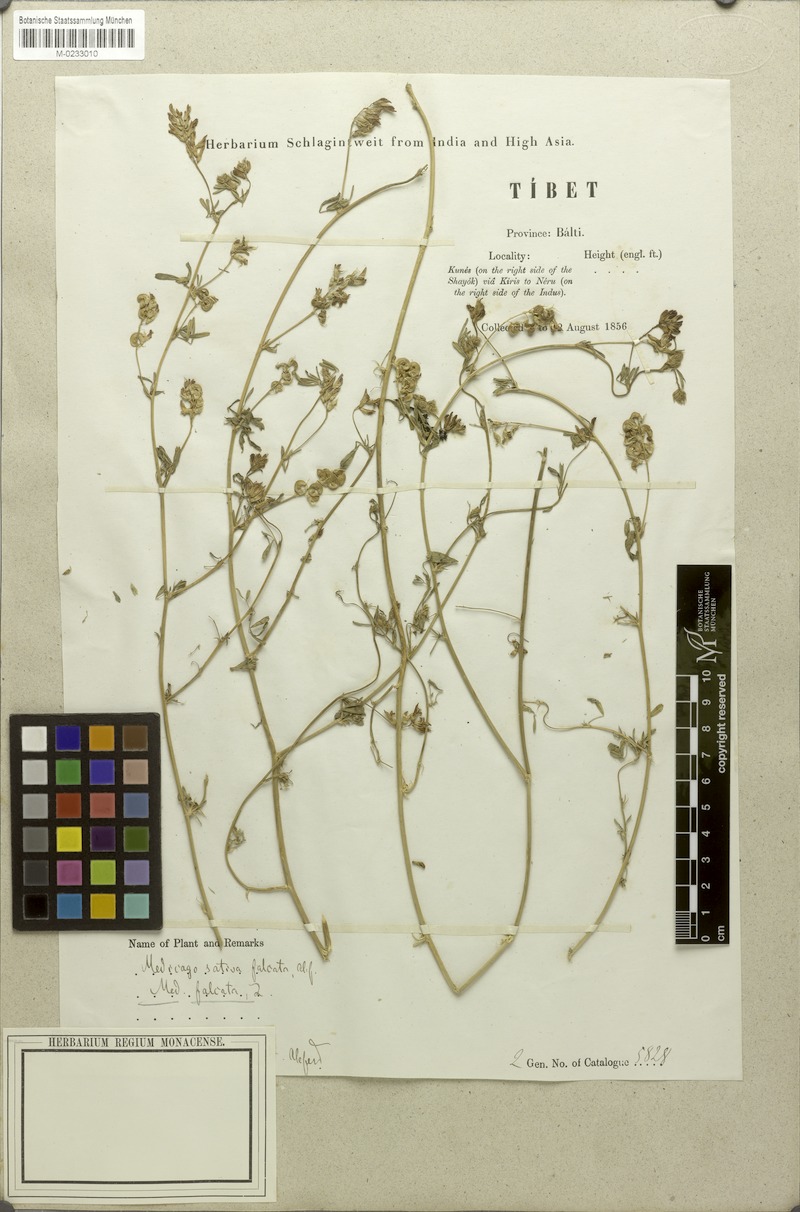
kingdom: Plantae
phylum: Tracheophyta
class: Magnoliopsida
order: Fabales
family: Fabaceae
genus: Medicago
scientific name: Medicago falcata
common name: Sickle medick
